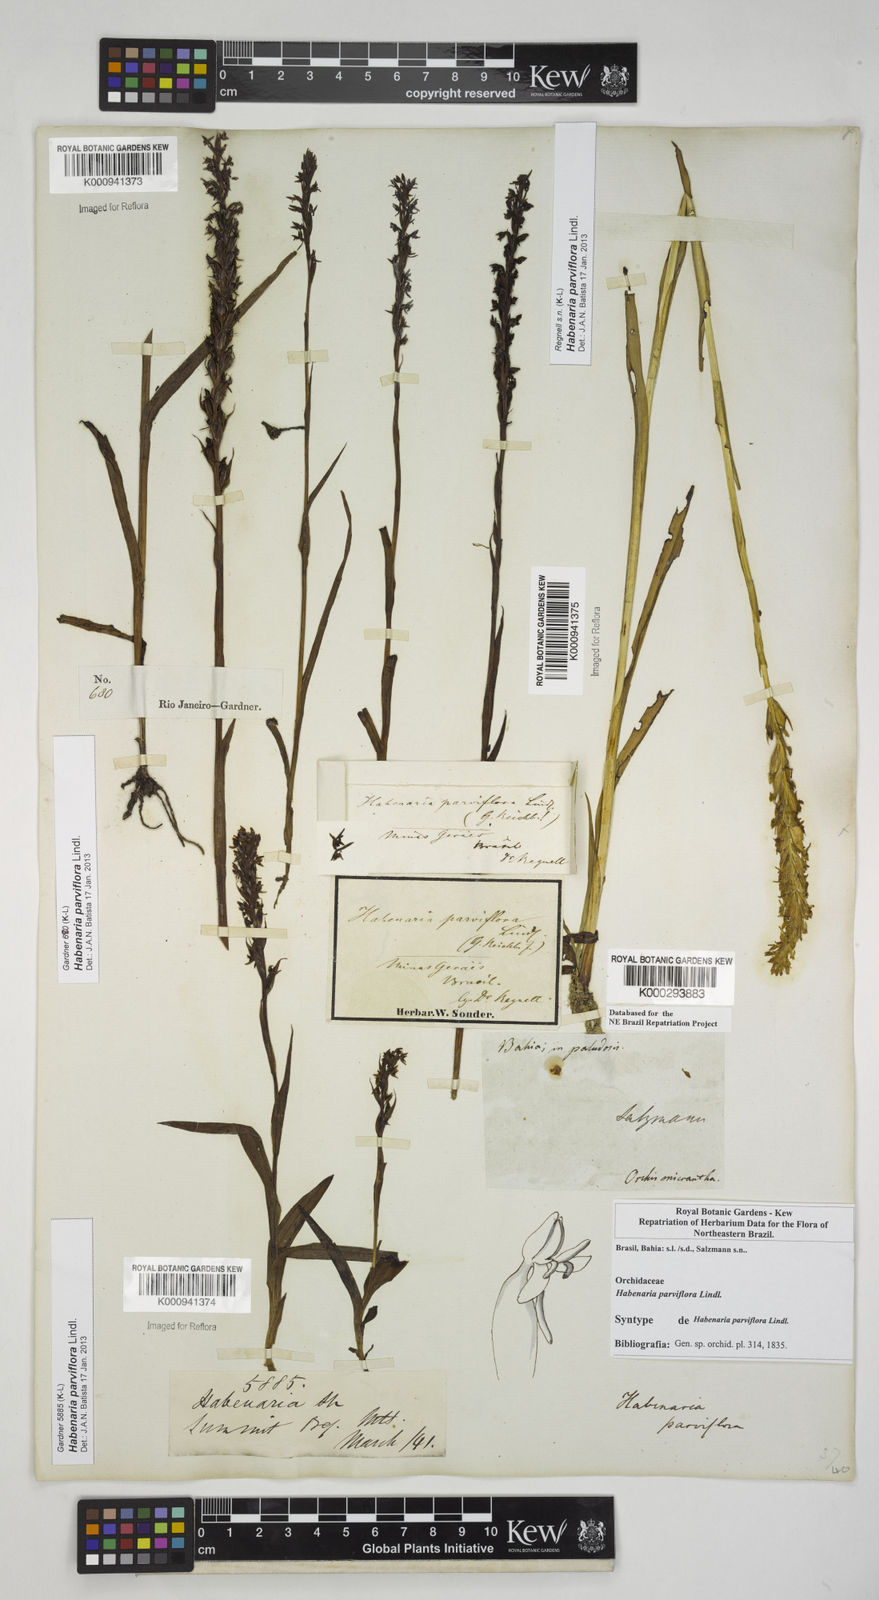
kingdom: Plantae
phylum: Tracheophyta
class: Liliopsida
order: Asparagales
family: Orchidaceae
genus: Habenaria
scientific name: Habenaria parviflora
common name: Small flowered habenaria
